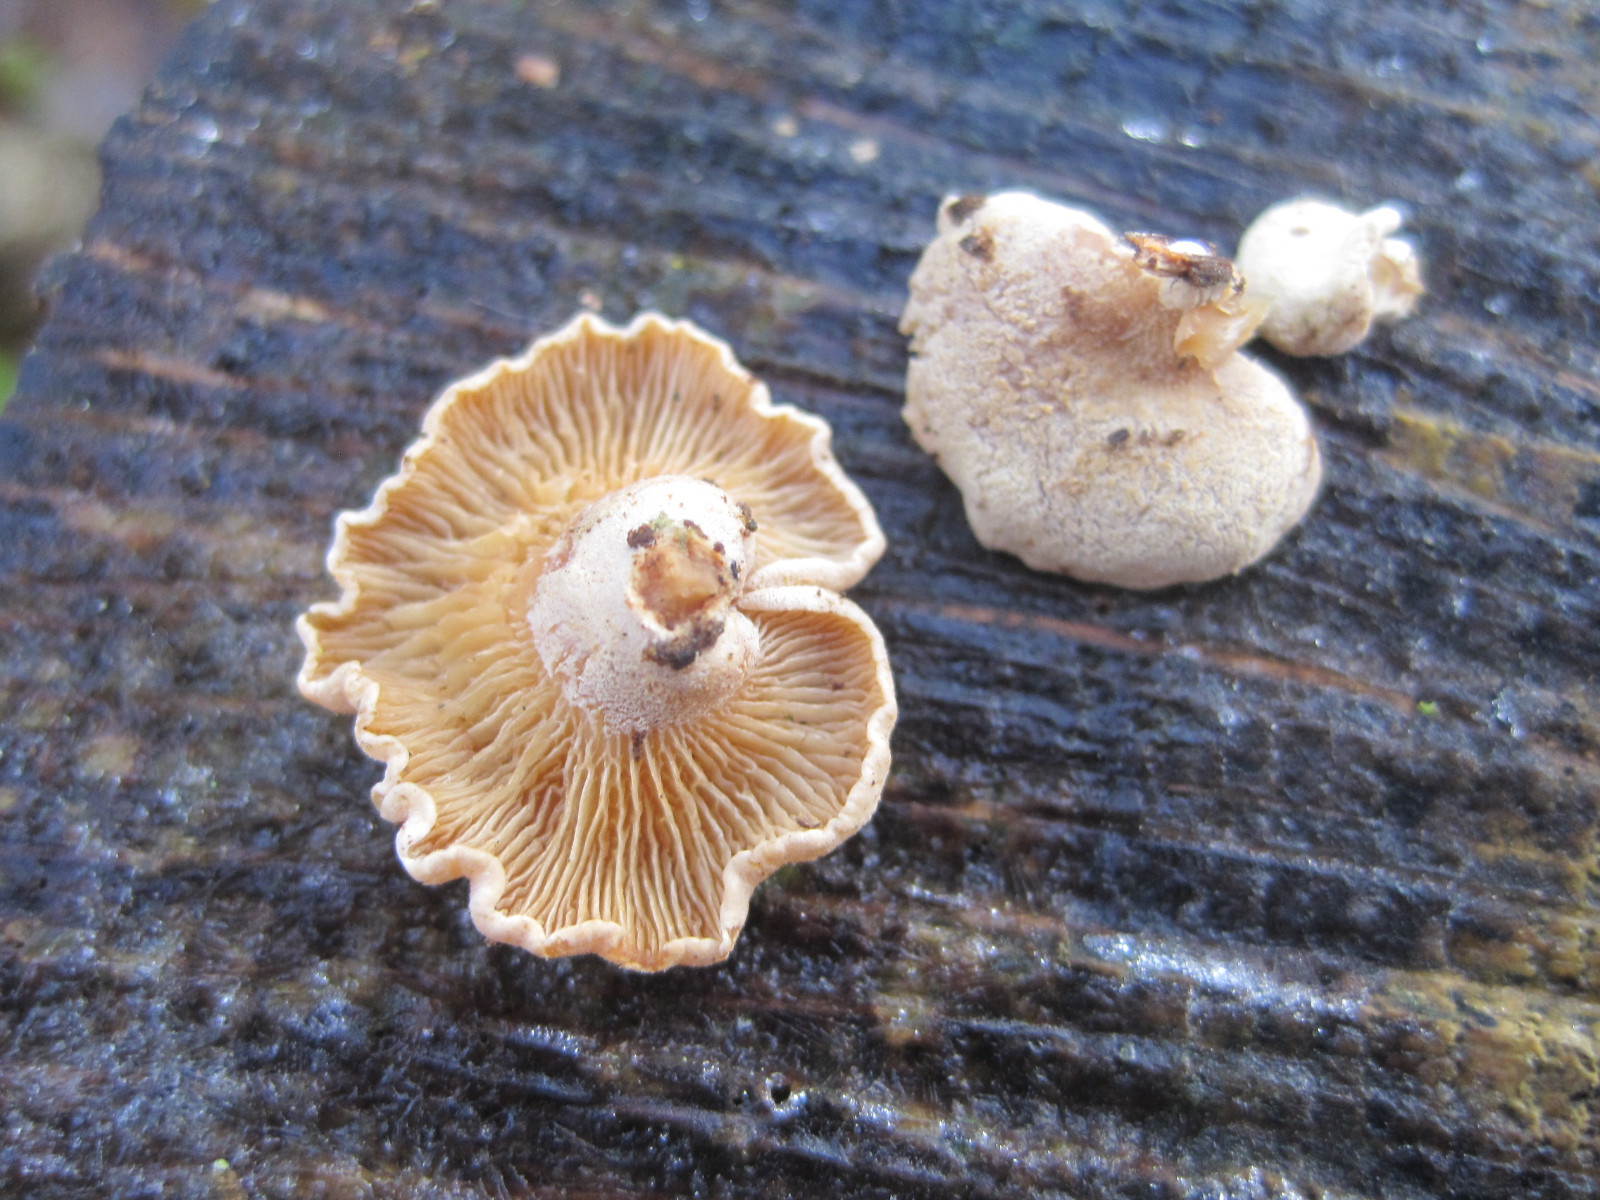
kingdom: Fungi
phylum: Basidiomycota
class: Agaricomycetes
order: Agaricales
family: Mycenaceae
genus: Panellus
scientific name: Panellus stipticus
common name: kliddet epaulethat
